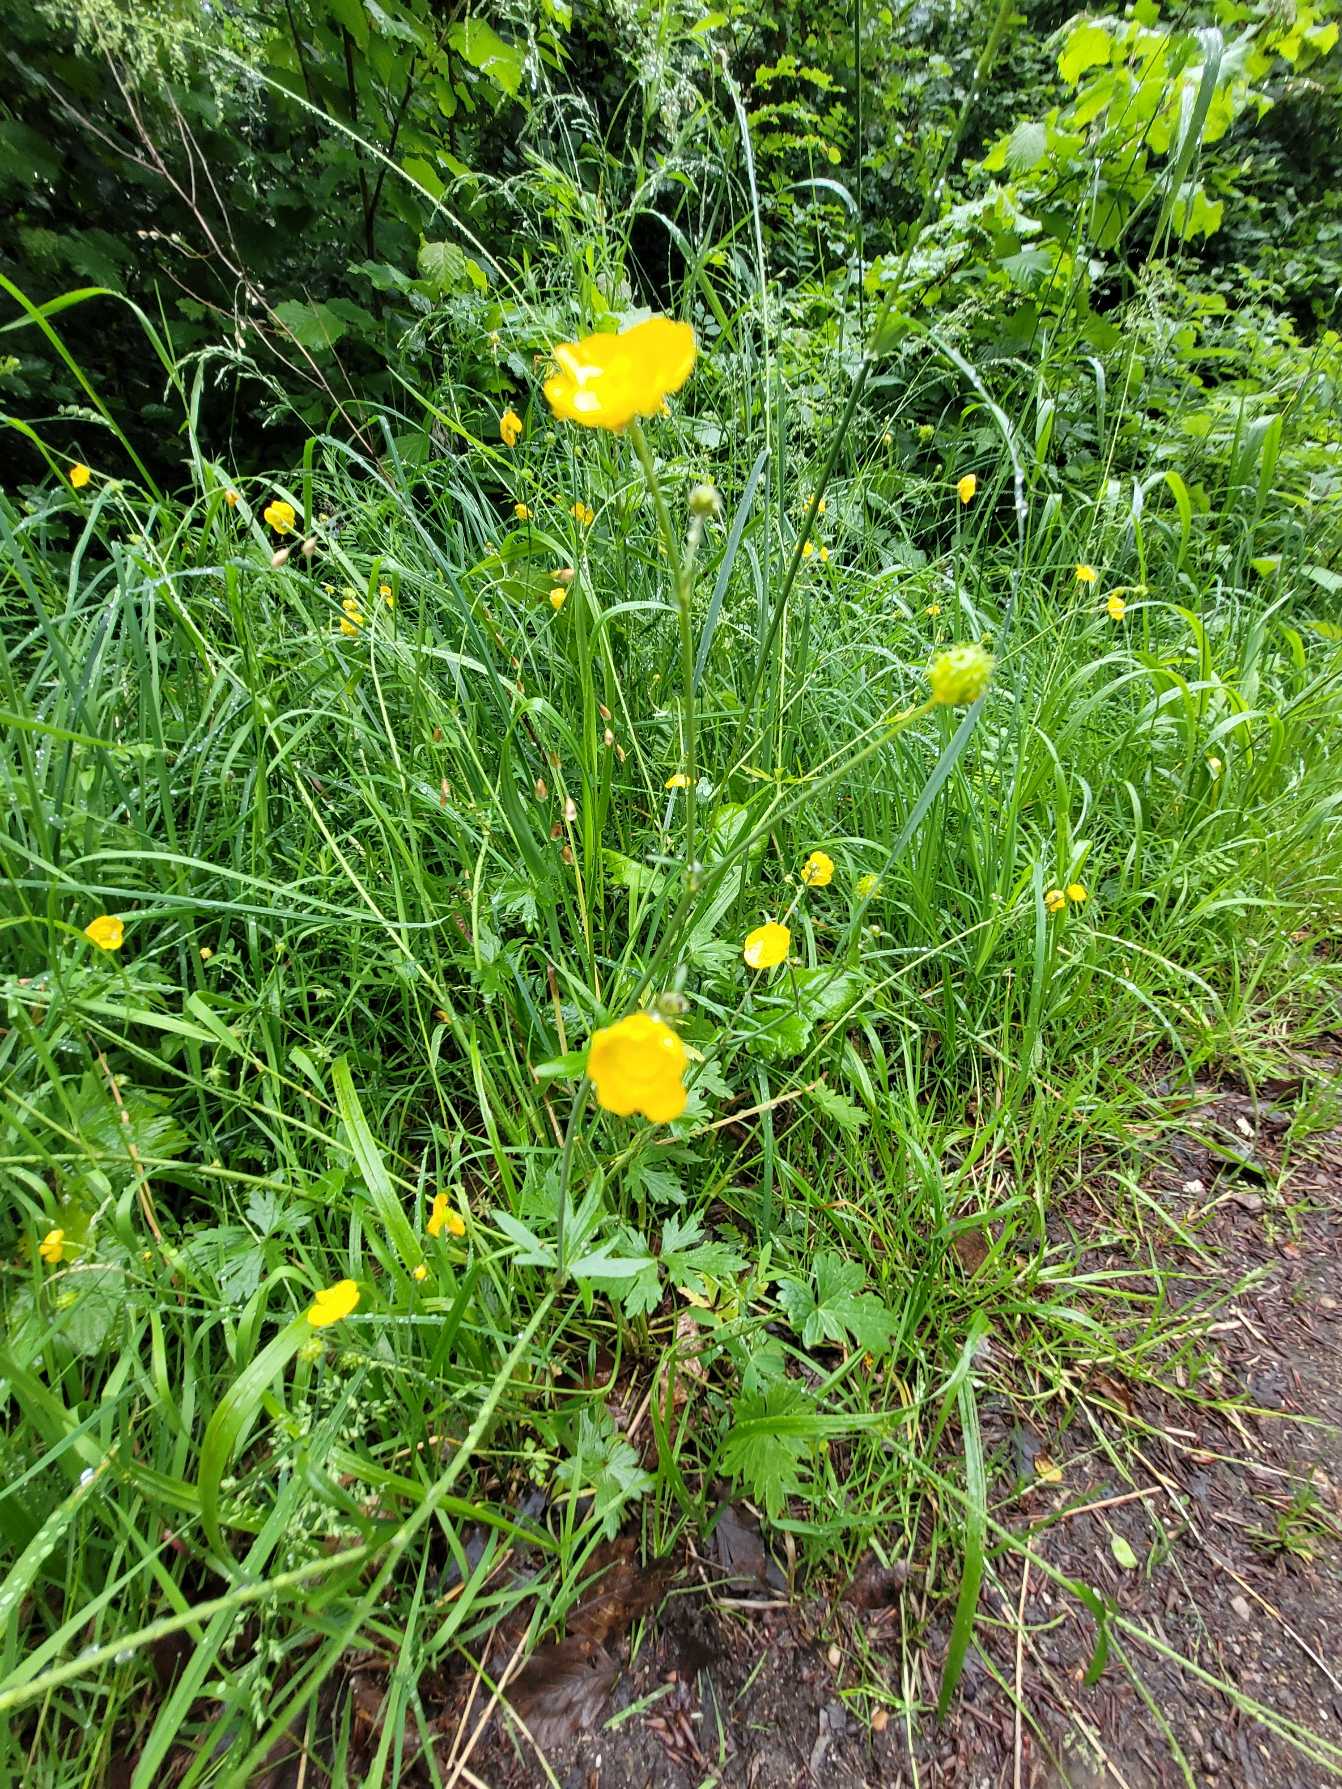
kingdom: Plantae
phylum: Tracheophyta
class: Magnoliopsida
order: Ranunculales
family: Ranunculaceae
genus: Ranunculus
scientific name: Ranunculus acris
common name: Bidende ranunkel
